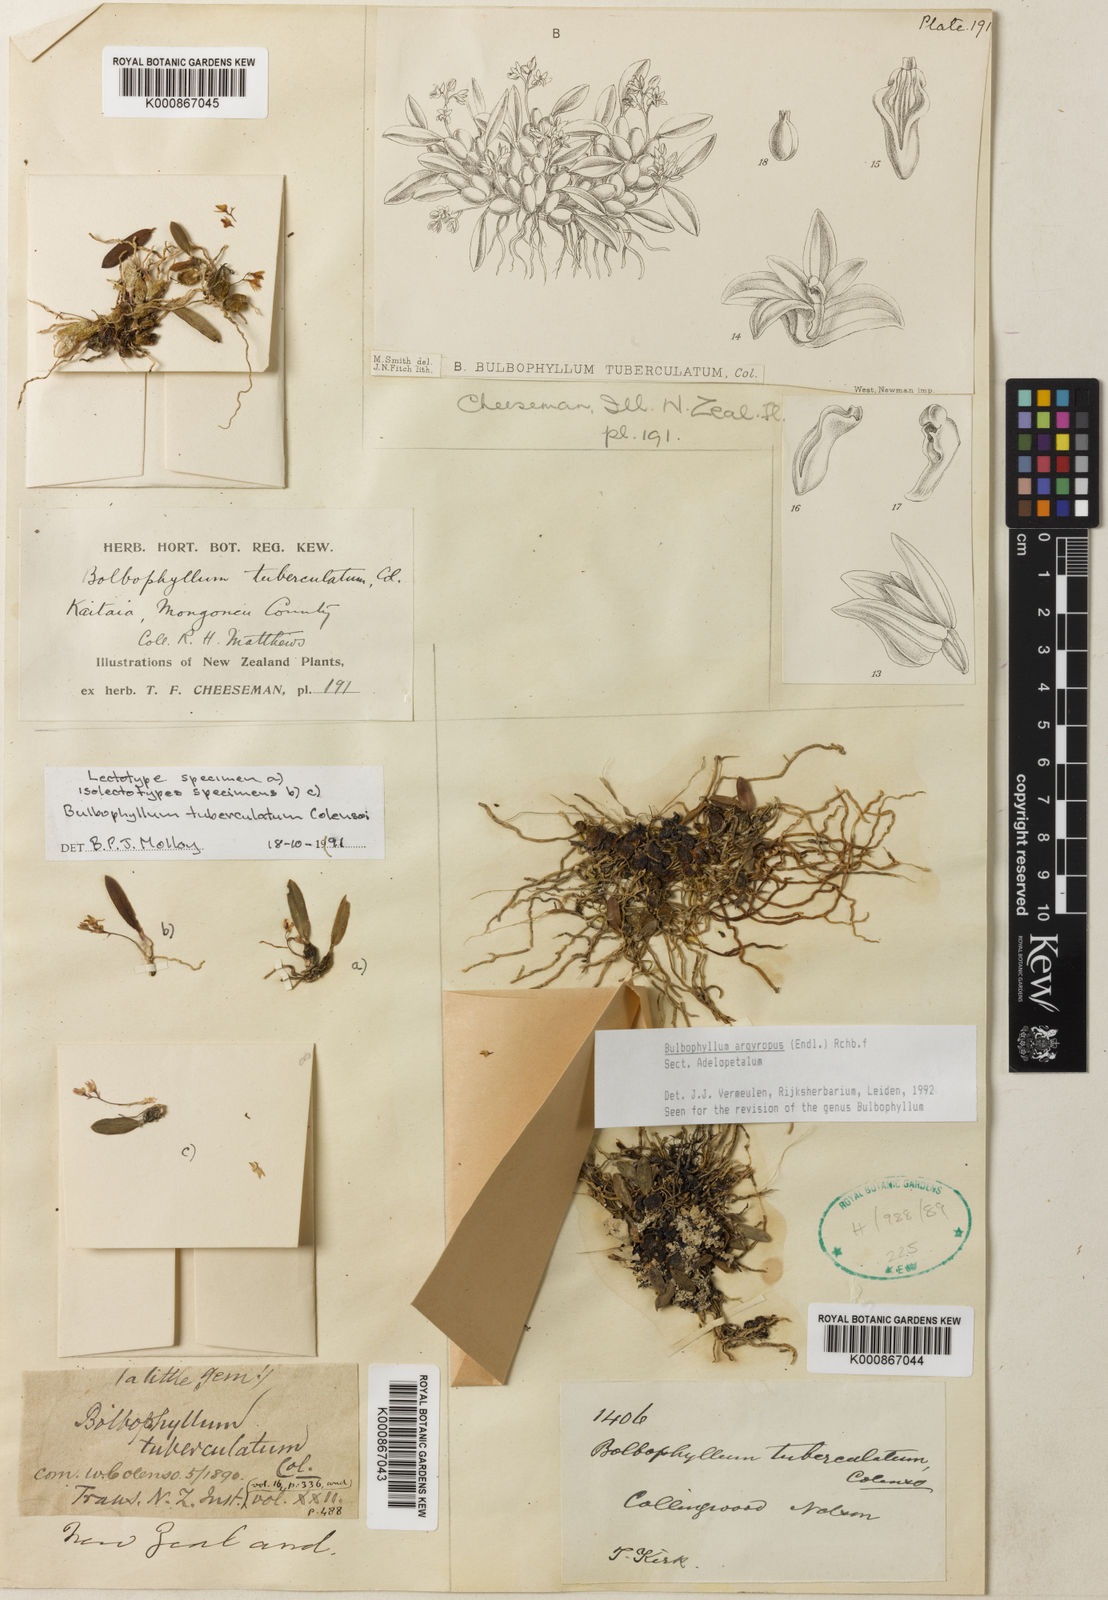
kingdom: Plantae
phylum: Tracheophyta
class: Liliopsida
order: Asparagales
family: Orchidaceae
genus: Bulbophyllum
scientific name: Bulbophyllum tuberculatum
